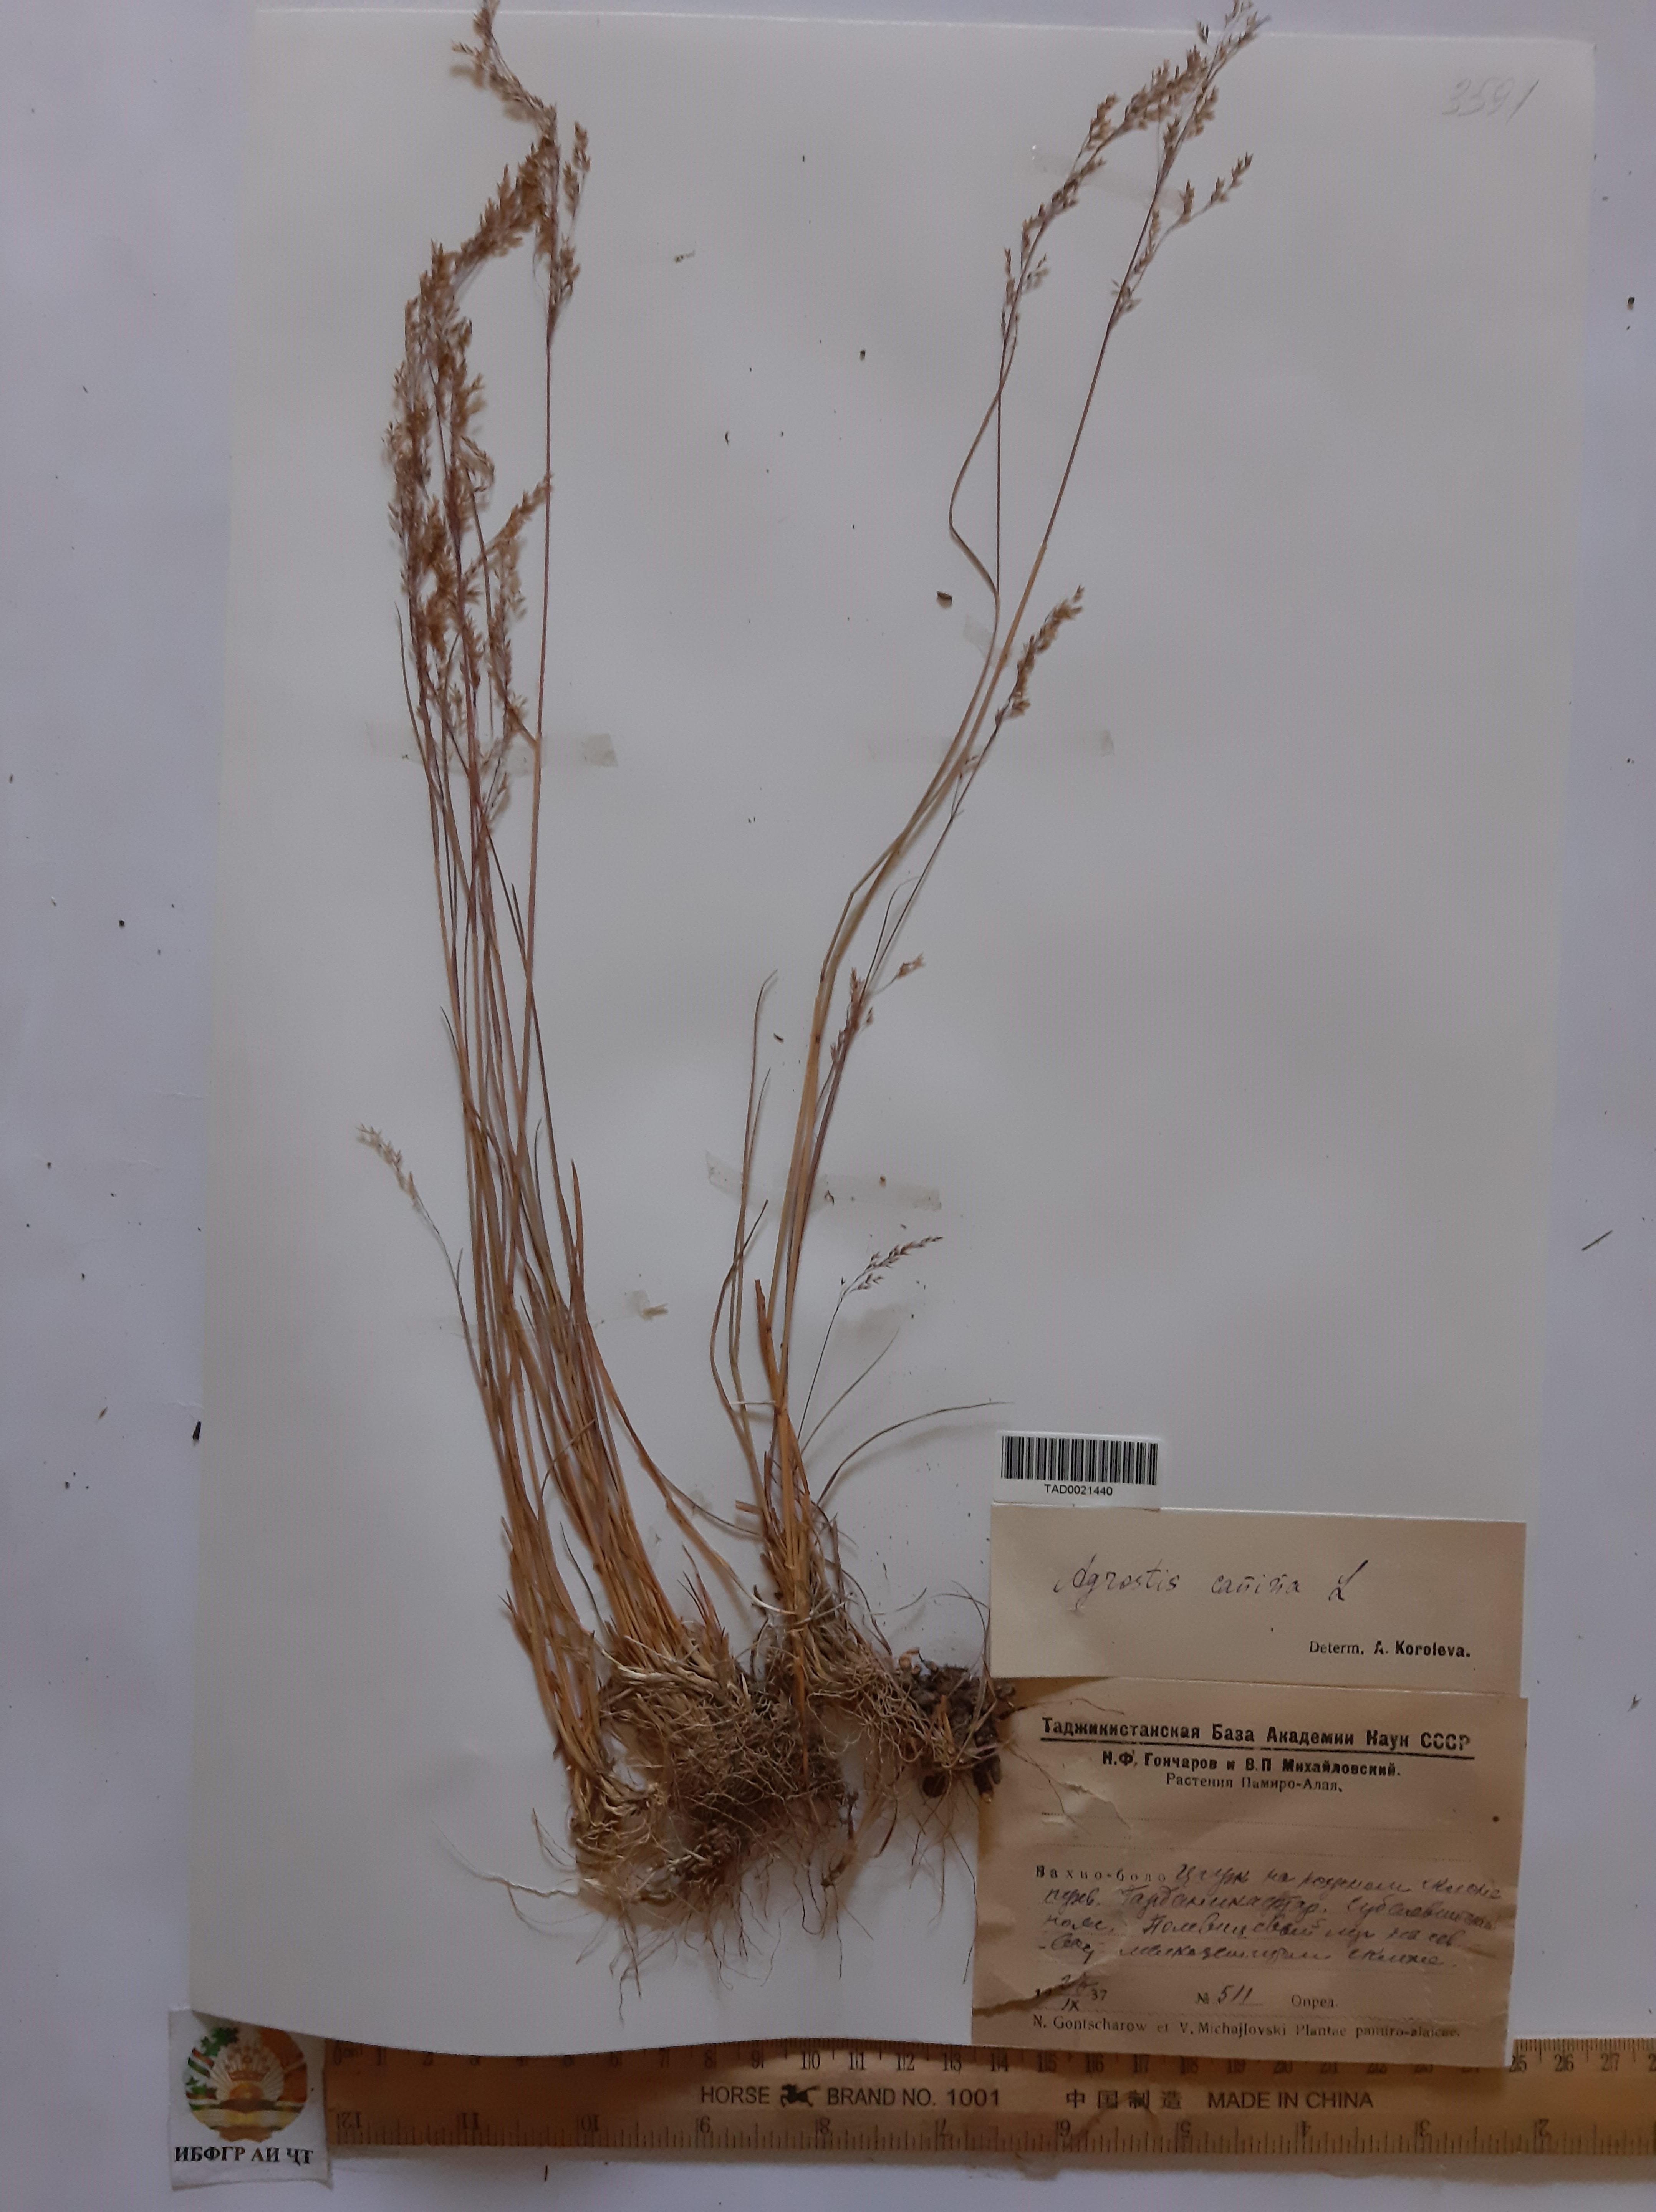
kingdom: Plantae
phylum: Tracheophyta
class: Liliopsida
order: Poales
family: Poaceae
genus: Agrostis
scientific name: Agrostis canina
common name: Velvet bent
